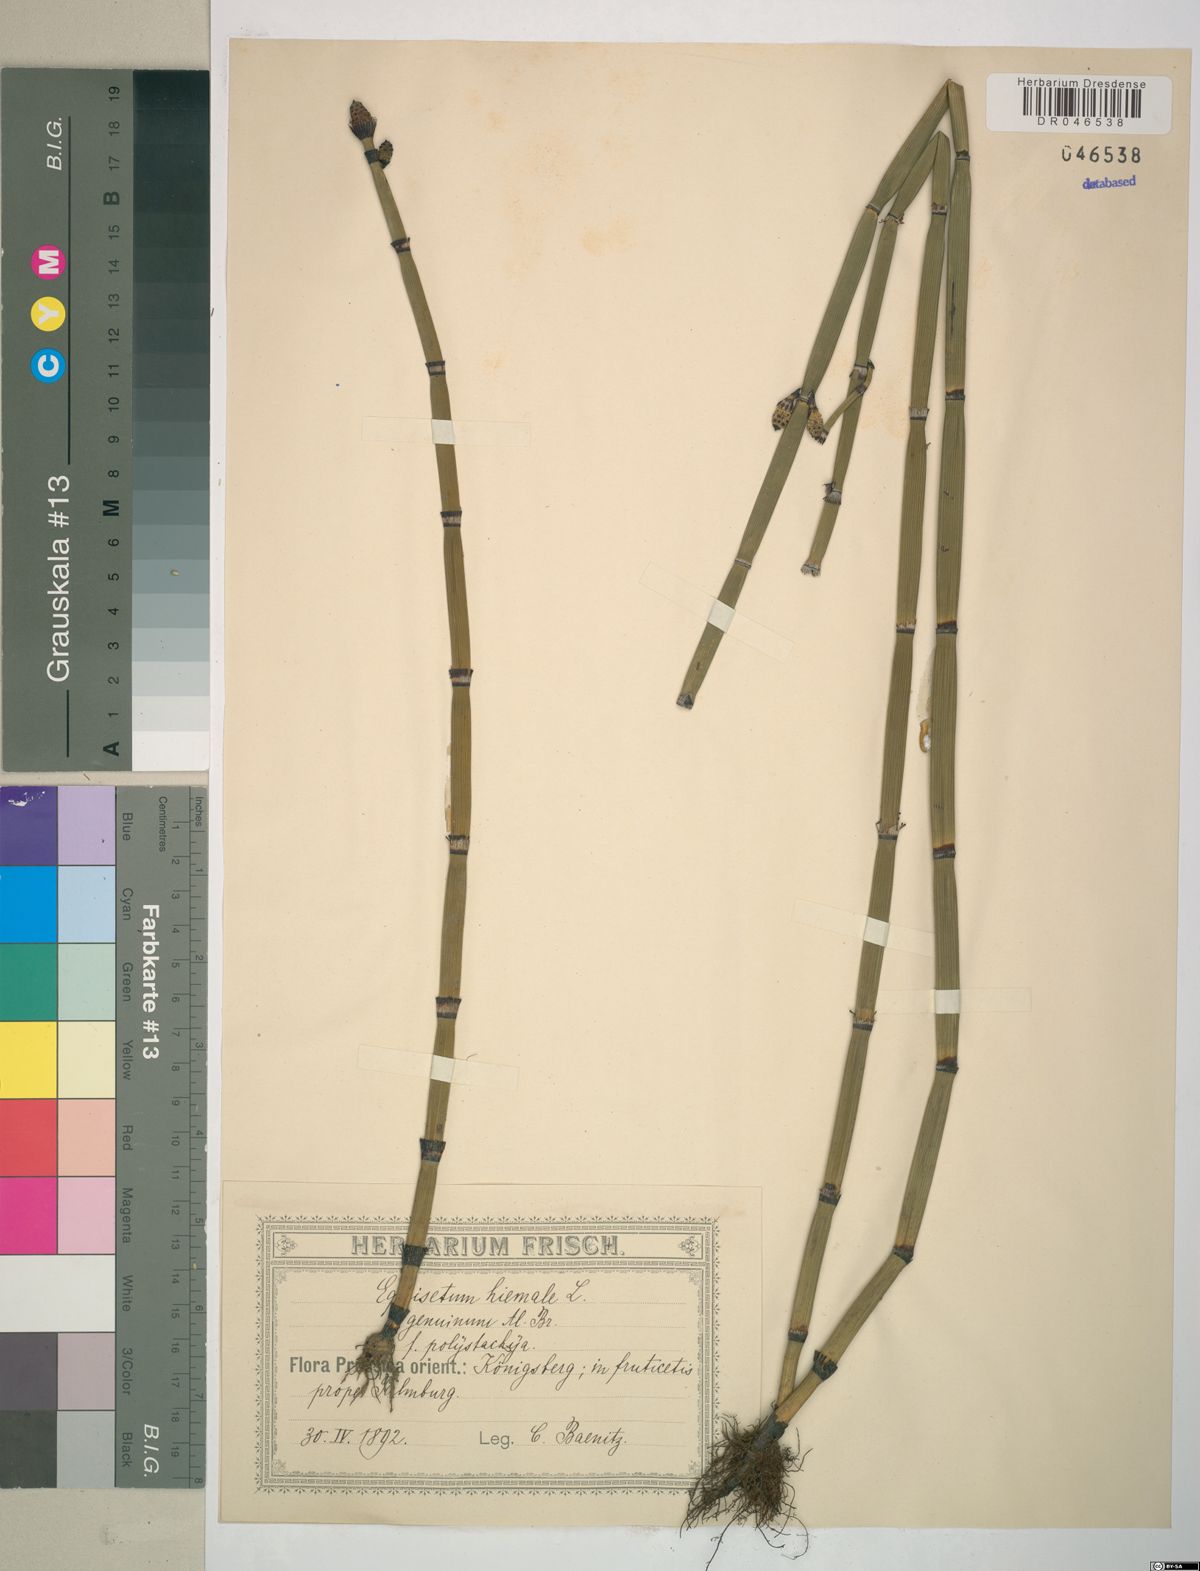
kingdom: Plantae
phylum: Tracheophyta
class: Polypodiopsida
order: Equisetales
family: Equisetaceae
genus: Equisetum
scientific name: Equisetum hyemale
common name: Rough horsetail
